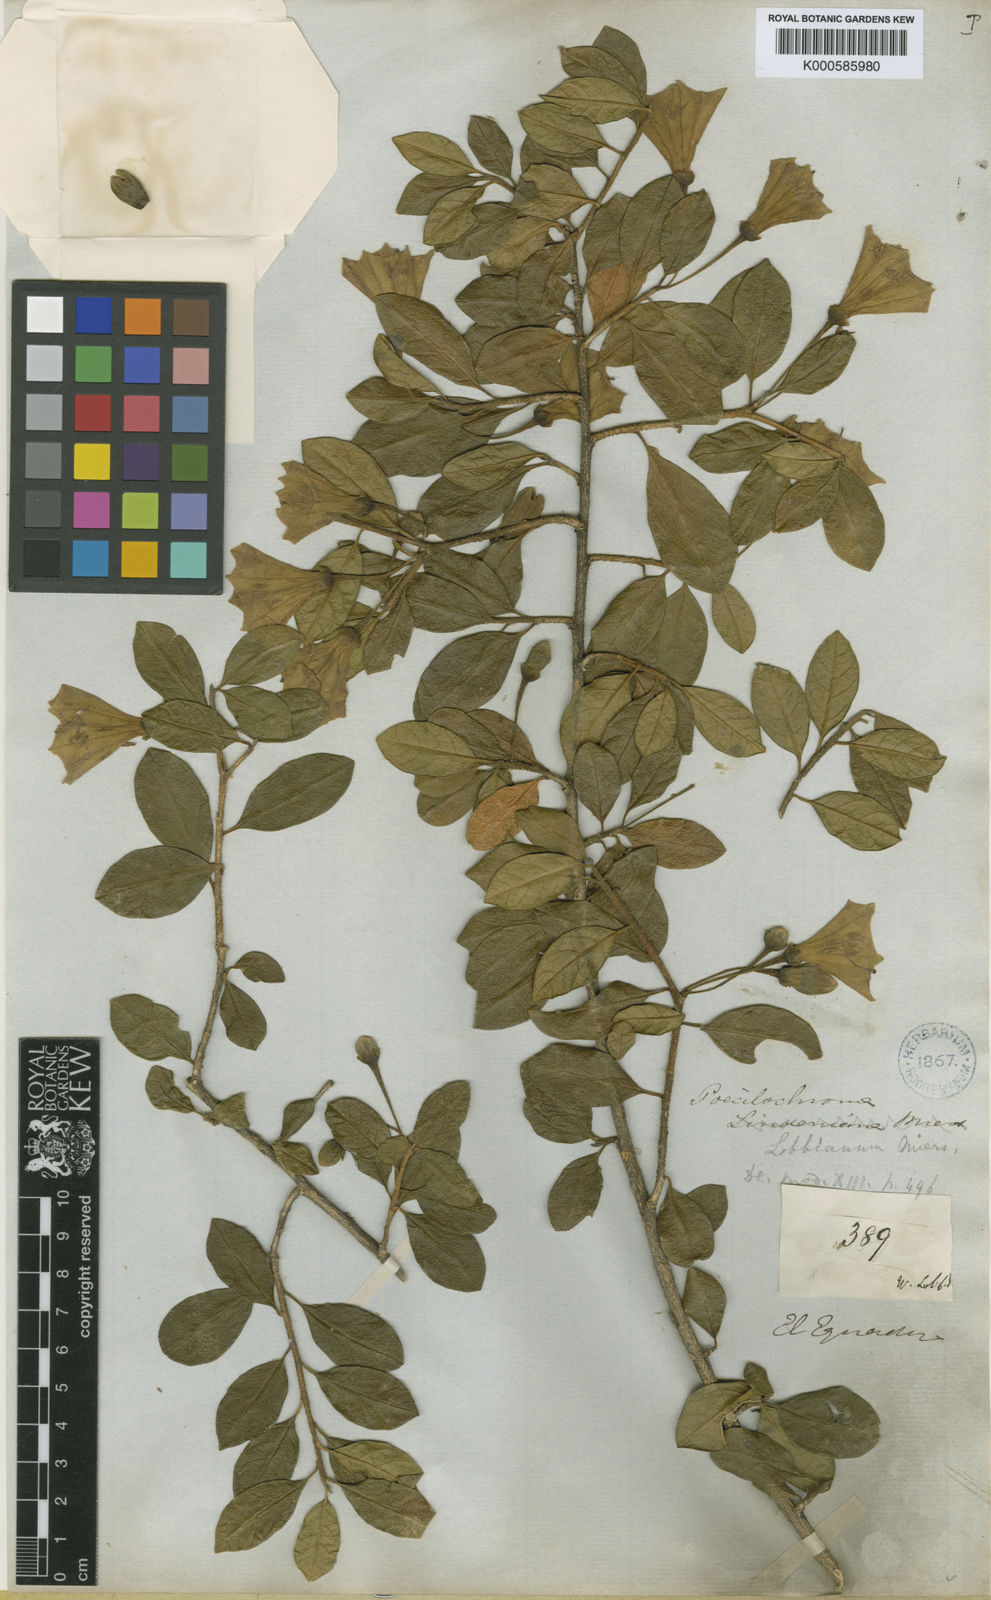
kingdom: Animalia
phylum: Arthropoda
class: Insecta
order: Hemiptera
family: Pentatomidae
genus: Poecilochroma
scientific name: Poecilochroma
